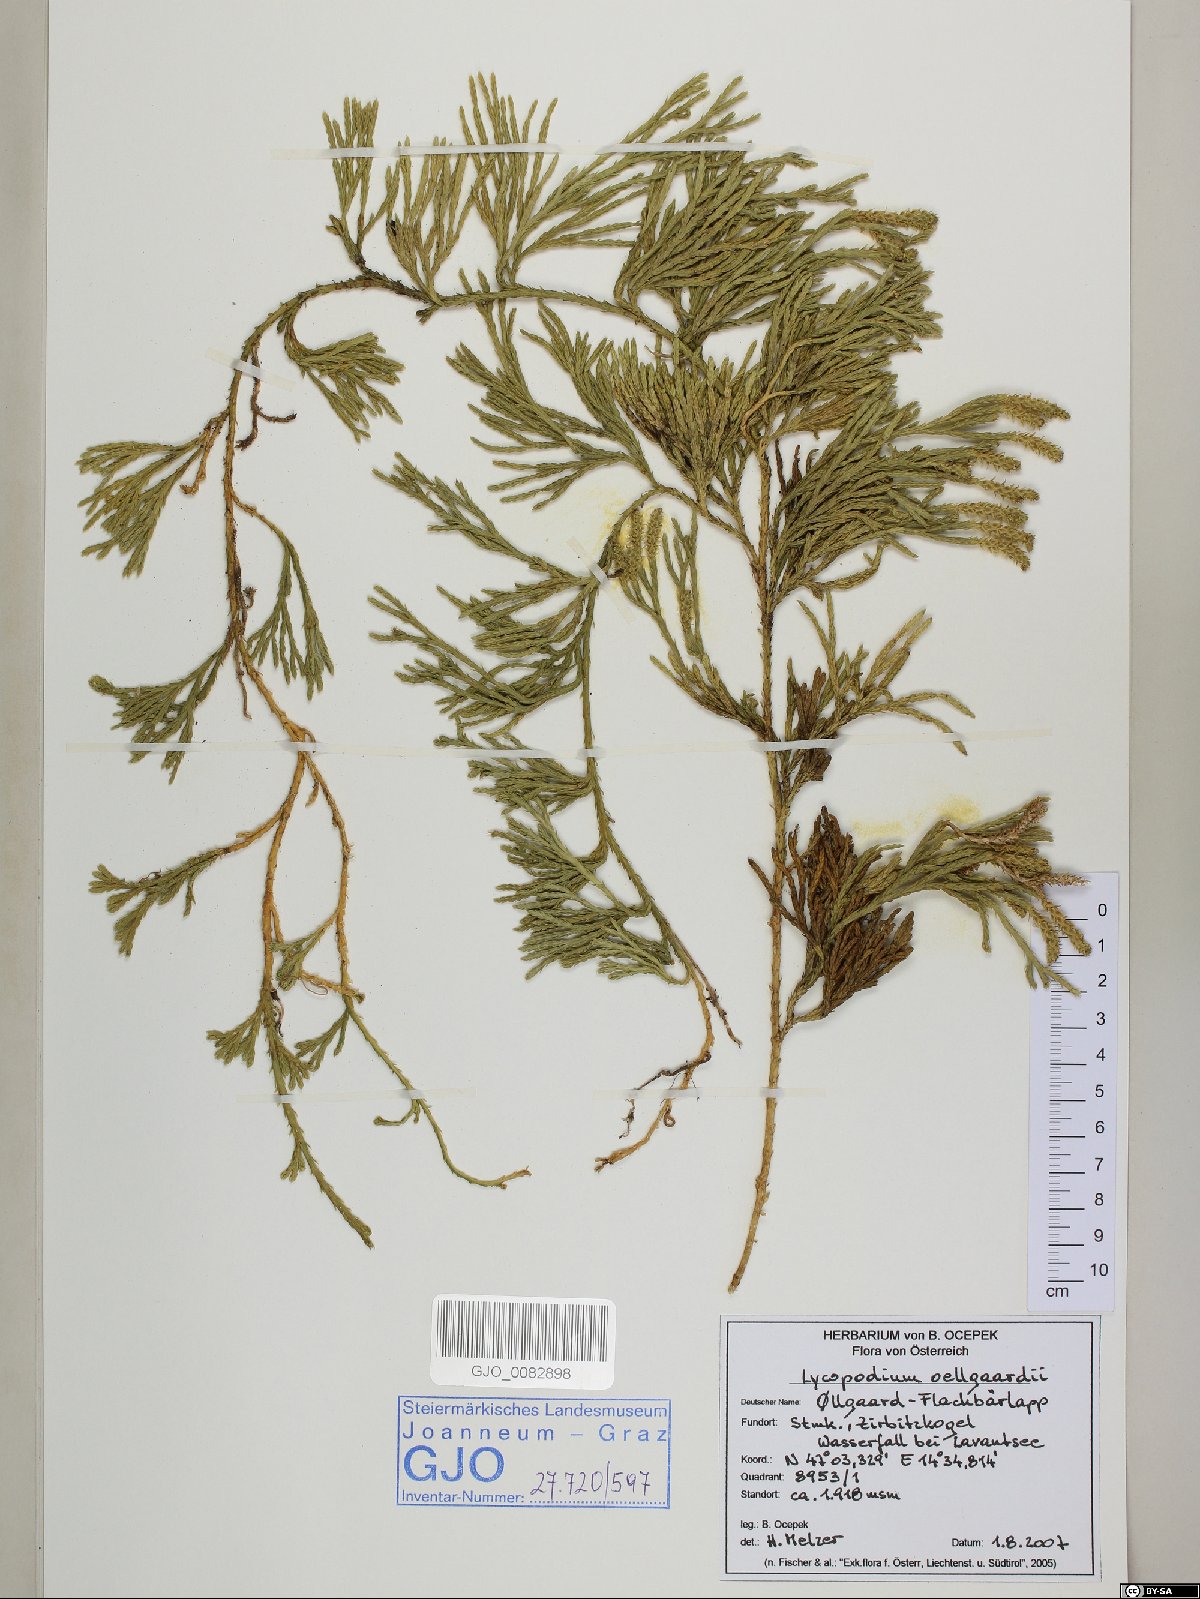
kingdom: Plantae
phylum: Tracheophyta
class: Lycopodiopsida
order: Lycopodiales
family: Lycopodiaceae
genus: Diphasiastrum
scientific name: Diphasiastrum oellgaardii
